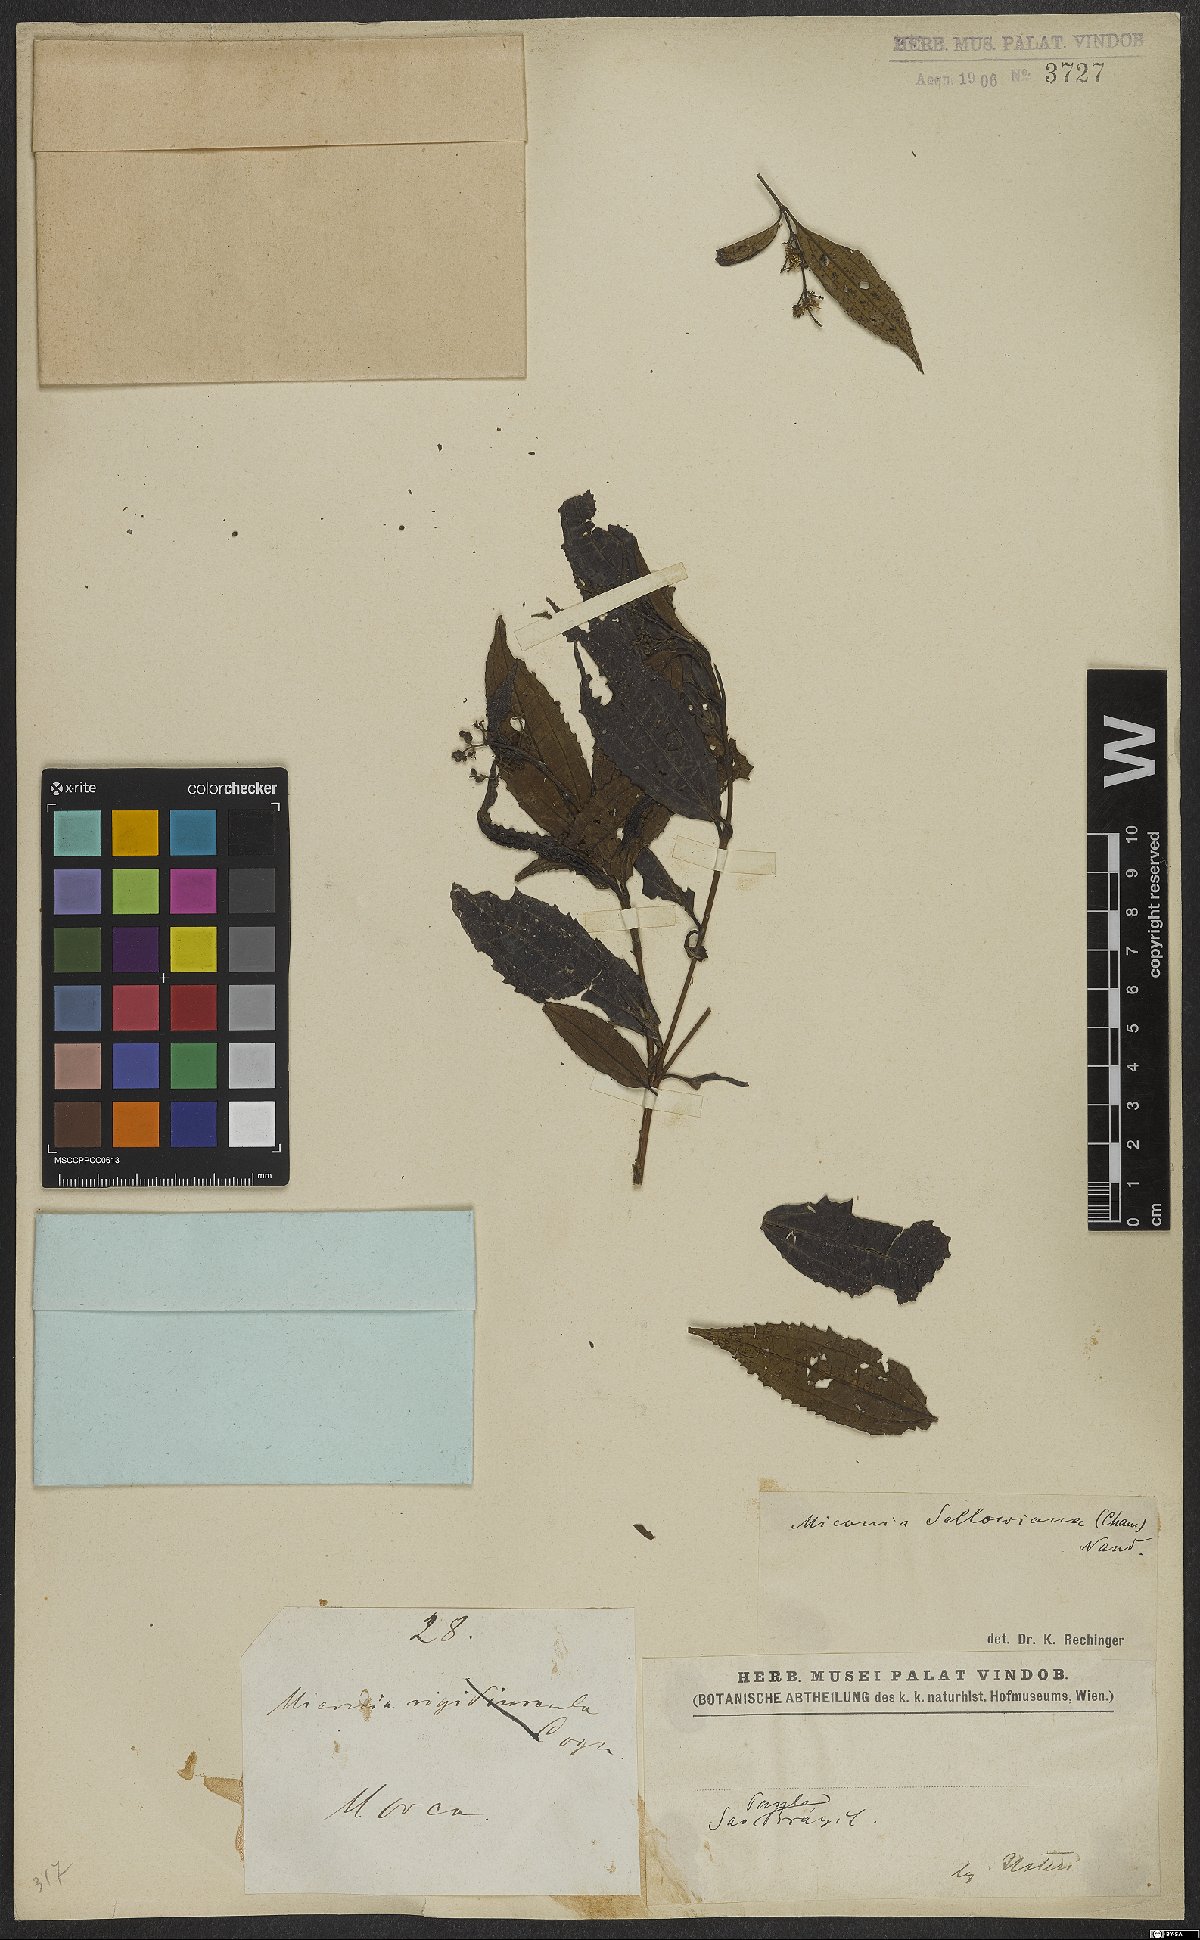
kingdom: Plantae
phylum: Tracheophyta
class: Magnoliopsida
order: Myrtales
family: Melastomataceae
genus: Miconia
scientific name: Miconia sellowiana
